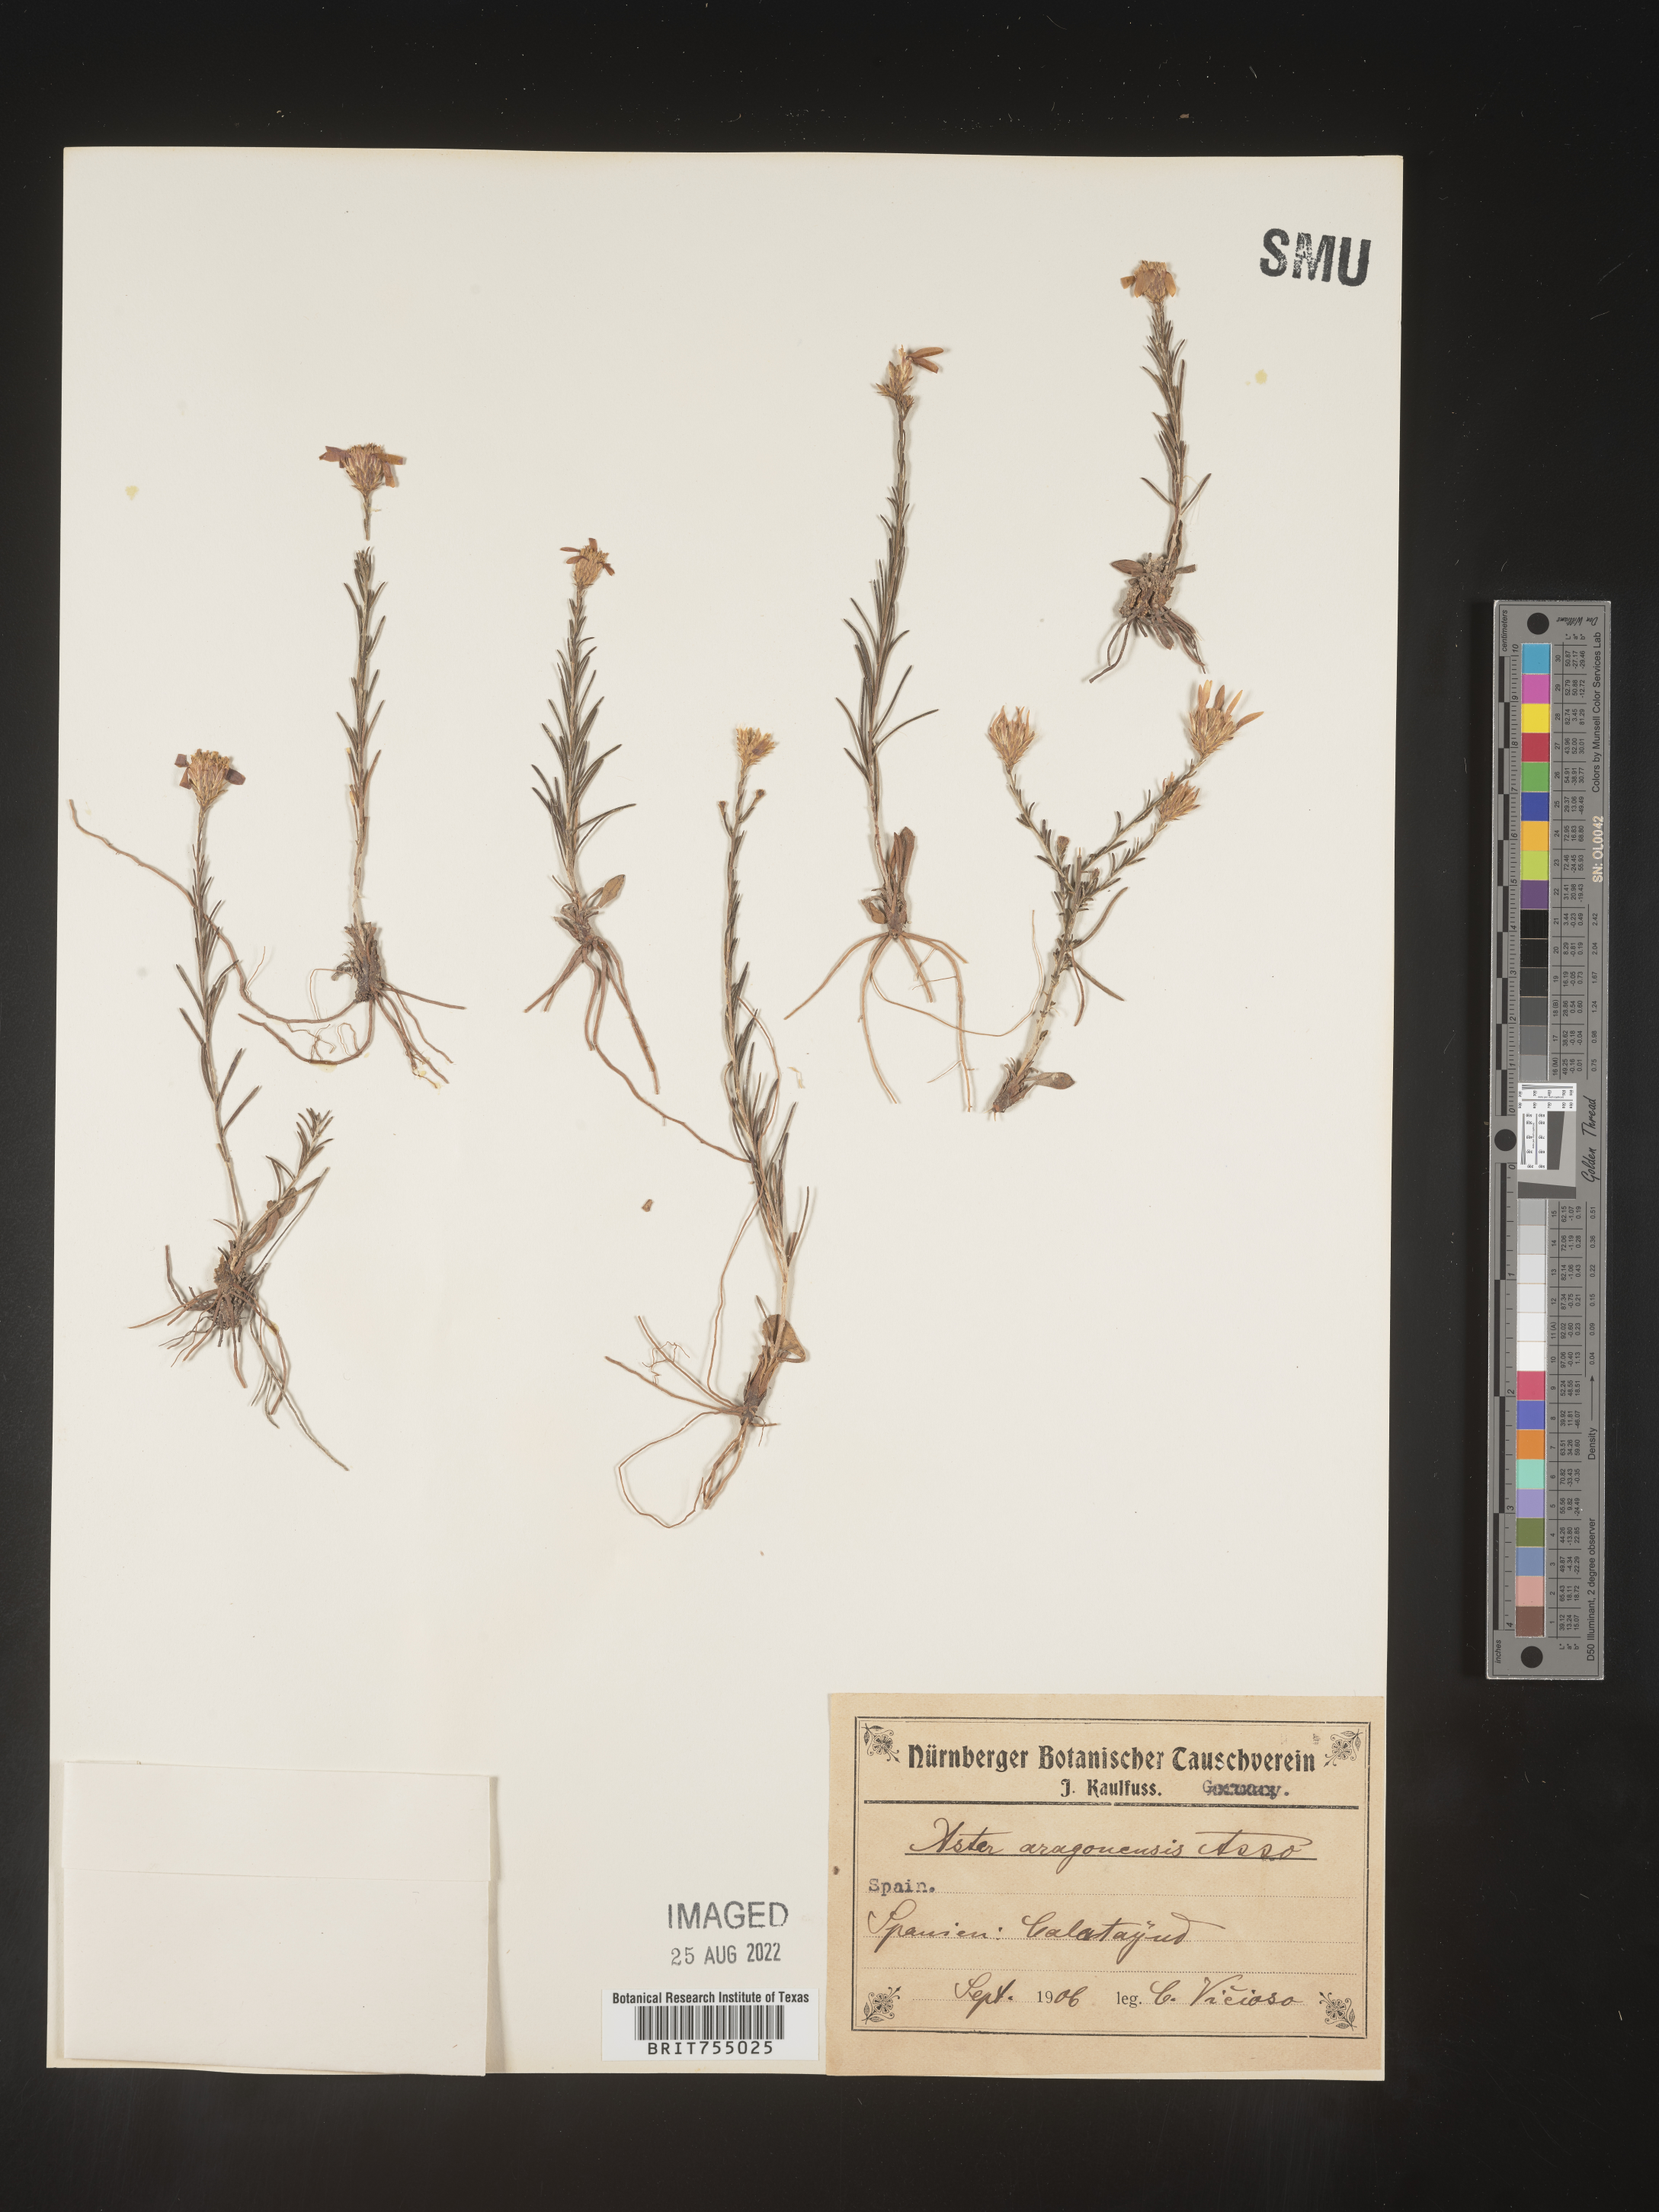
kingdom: Plantae
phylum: Tracheophyta
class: Magnoliopsida
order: Asterales
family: Asteraceae
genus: Symphyotrichum
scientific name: Symphyotrichum
